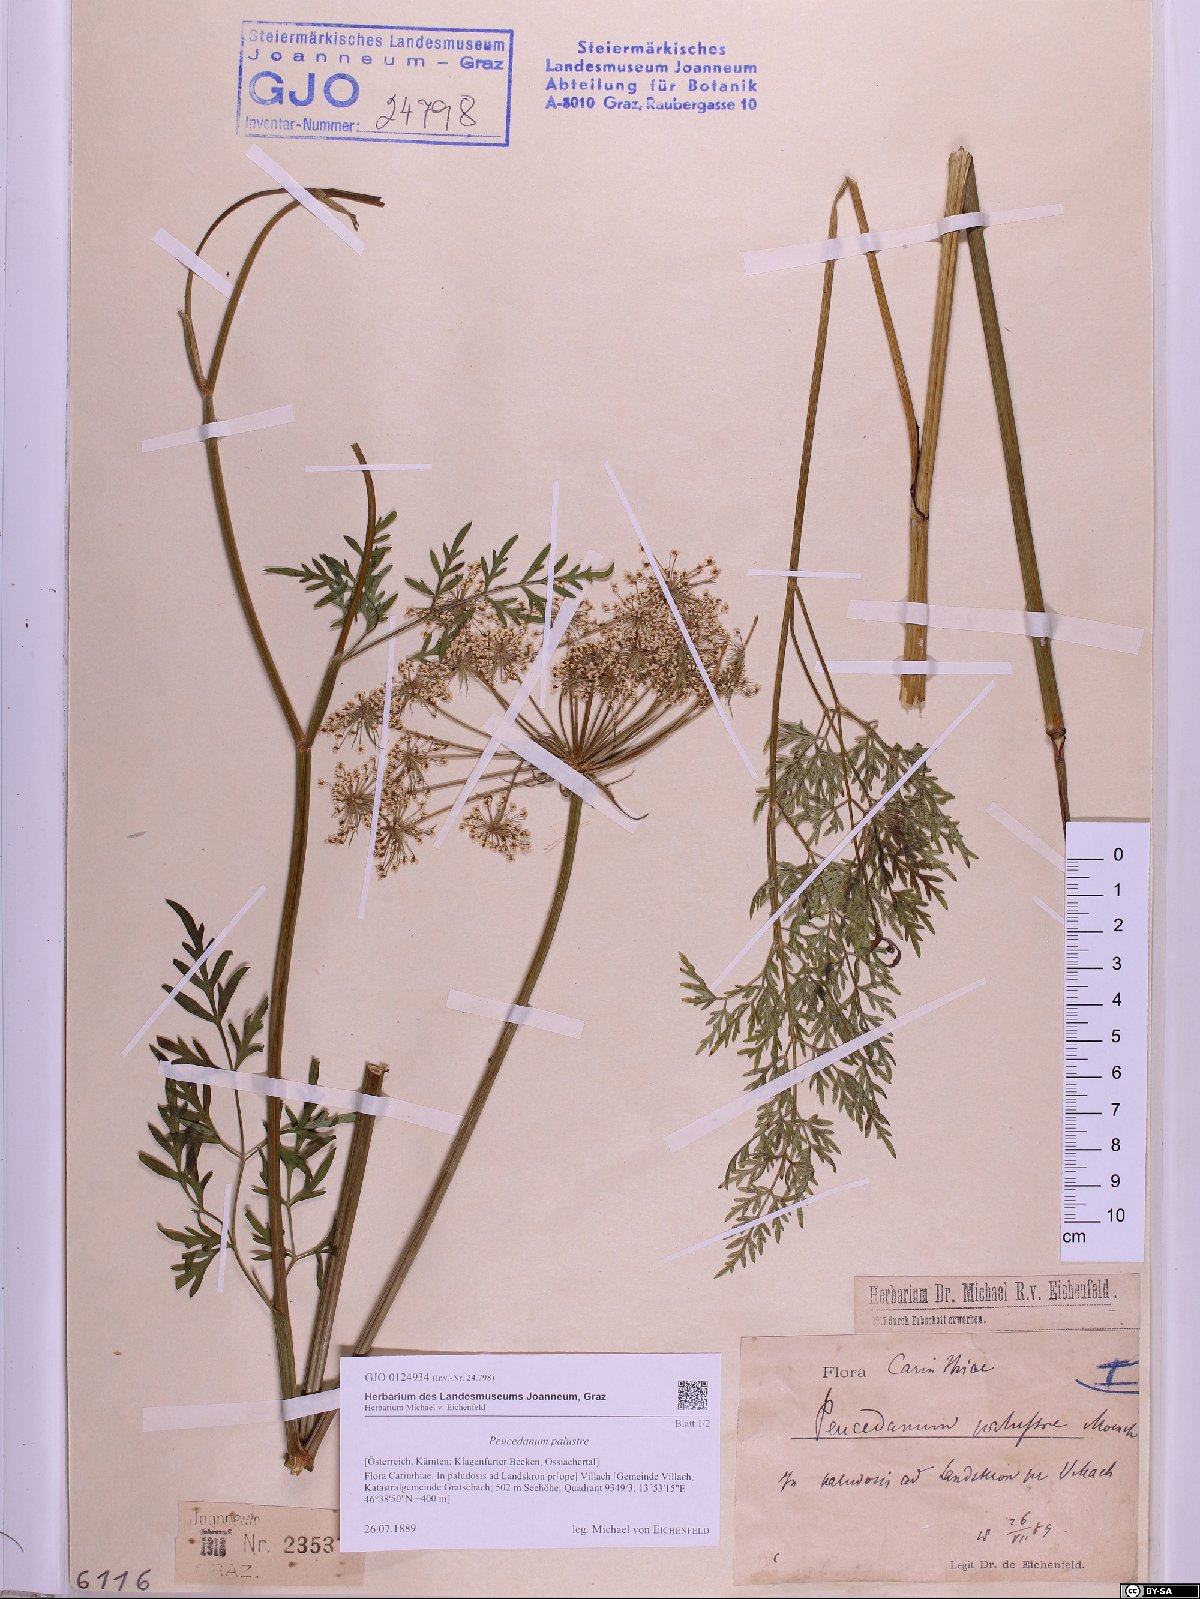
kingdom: Plantae
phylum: Tracheophyta
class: Magnoliopsida
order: Apiales
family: Apiaceae
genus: Thysselinum
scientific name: Thysselinum palustre
